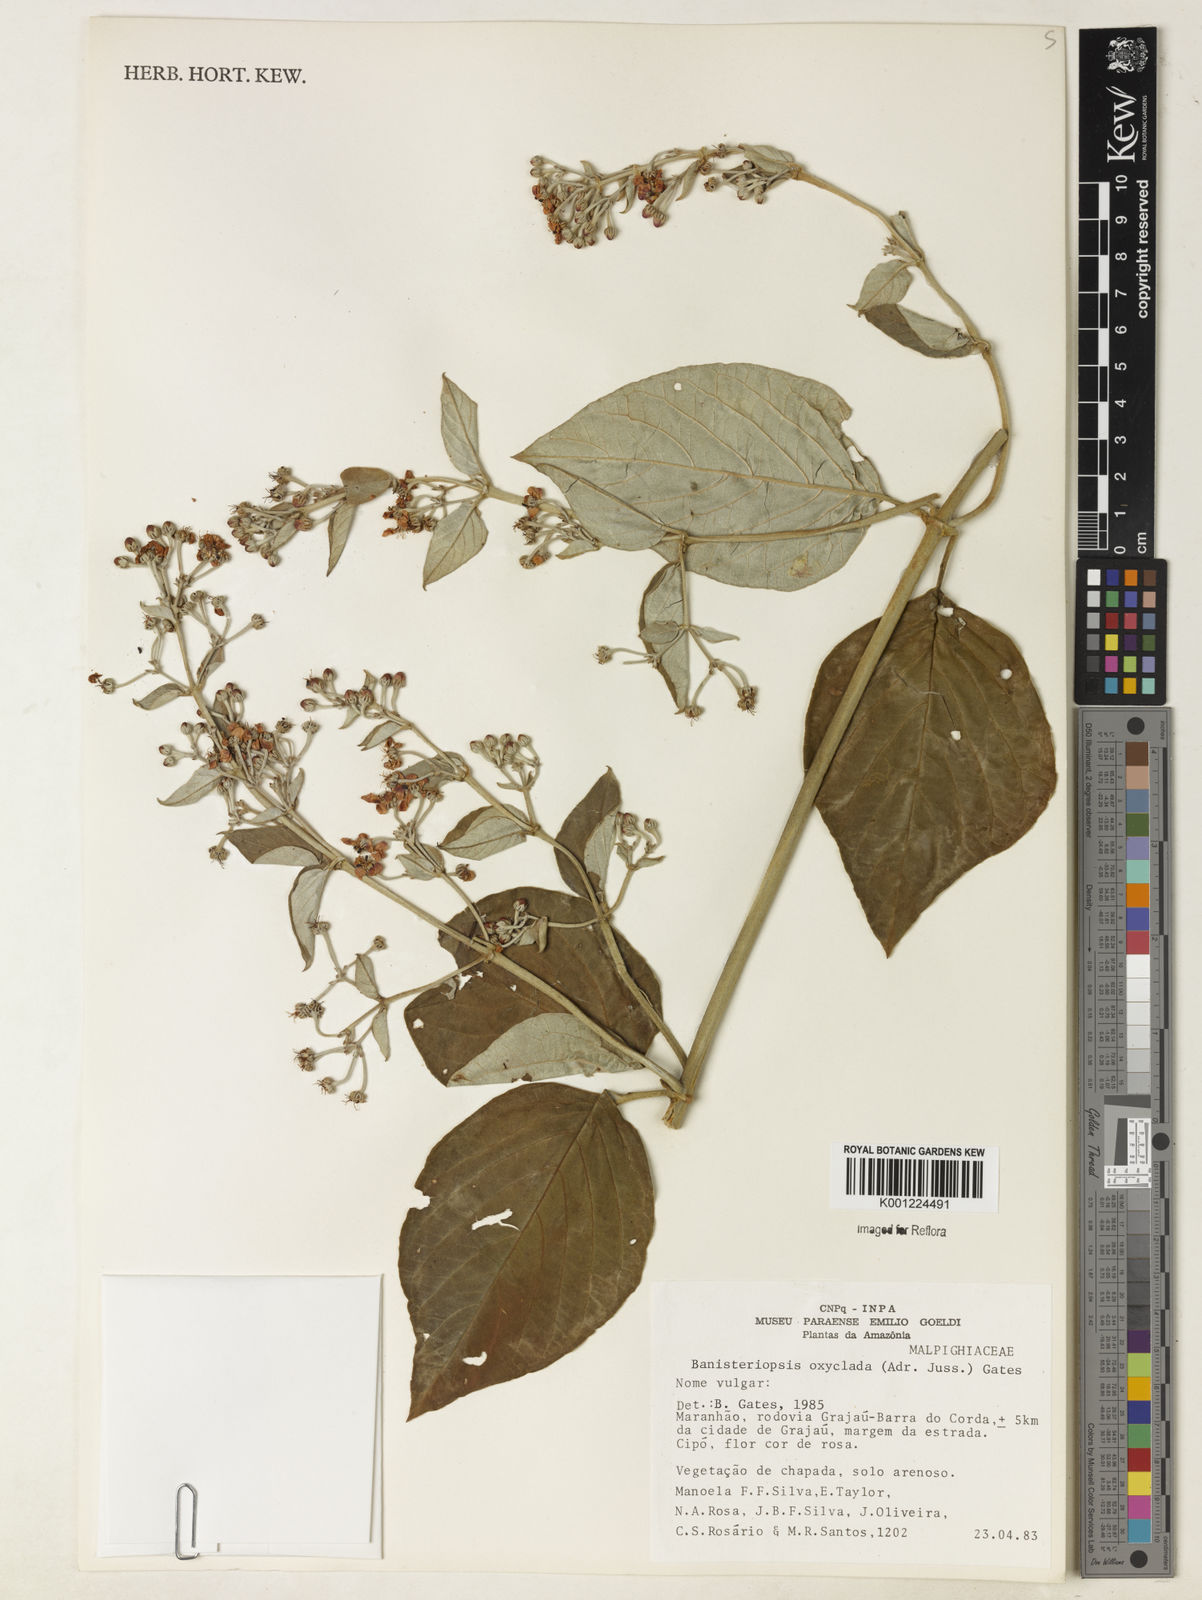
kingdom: Plantae
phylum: Tracheophyta
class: Magnoliopsida
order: Malpighiales
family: Malpighiaceae
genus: Banisteriopsis
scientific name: Banisteriopsis oxyclada
